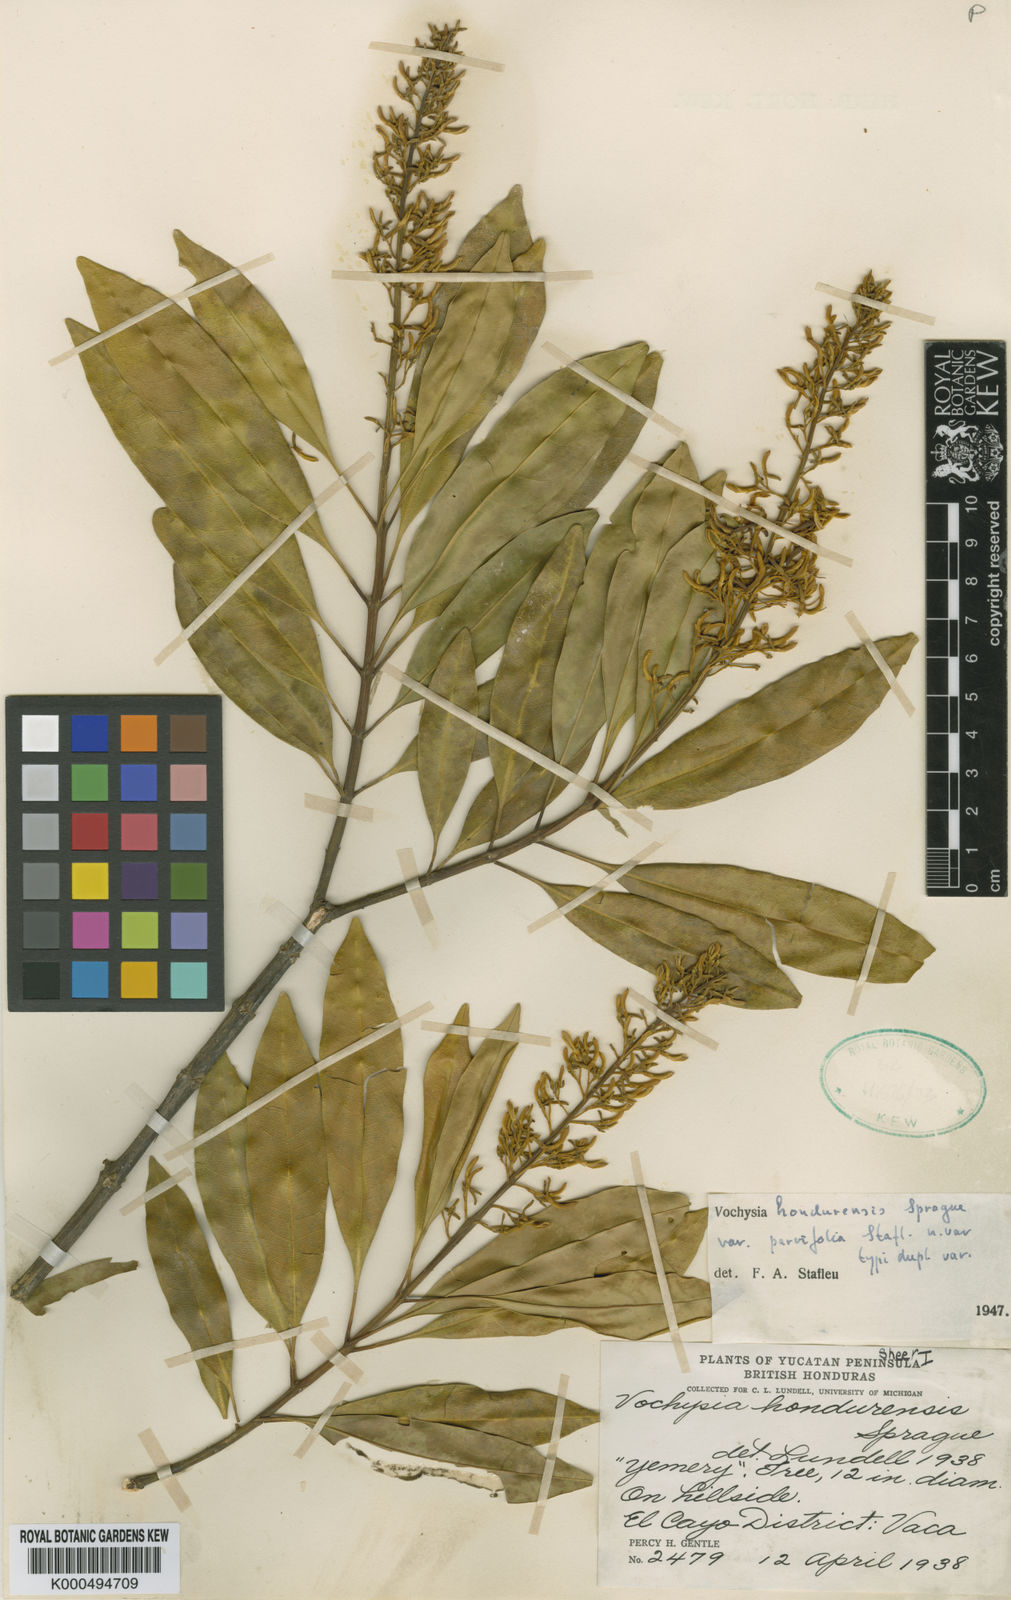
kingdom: Plantae
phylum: Tracheophyta
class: Magnoliopsida
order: Myrtales
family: Vochysiaceae
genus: Vochysia
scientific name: Vochysia guatemalensis
